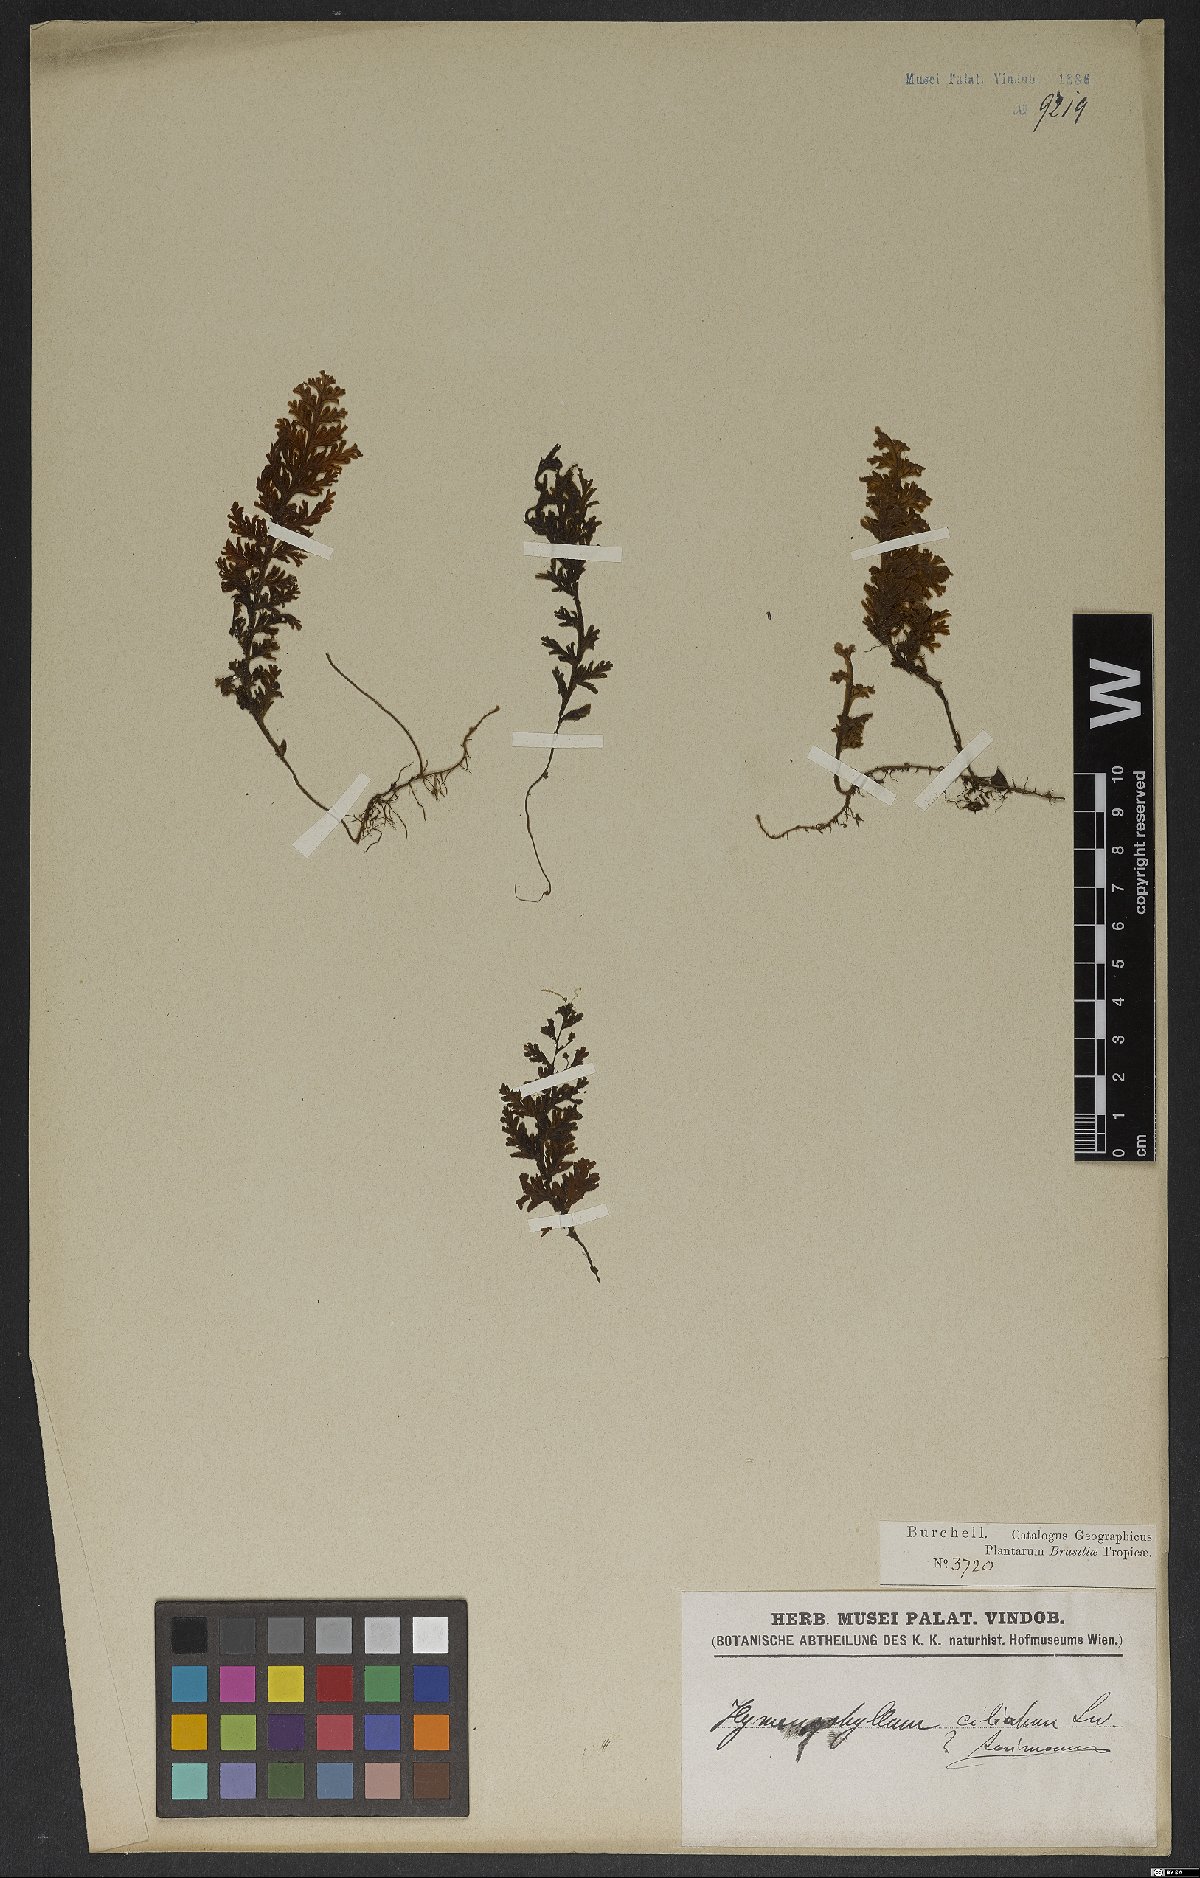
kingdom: Plantae
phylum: Tracheophyta
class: Polypodiopsida
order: Hymenophyllales
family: Hymenophyllaceae
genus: Hymenophyllum
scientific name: Hymenophyllum hirsutum
